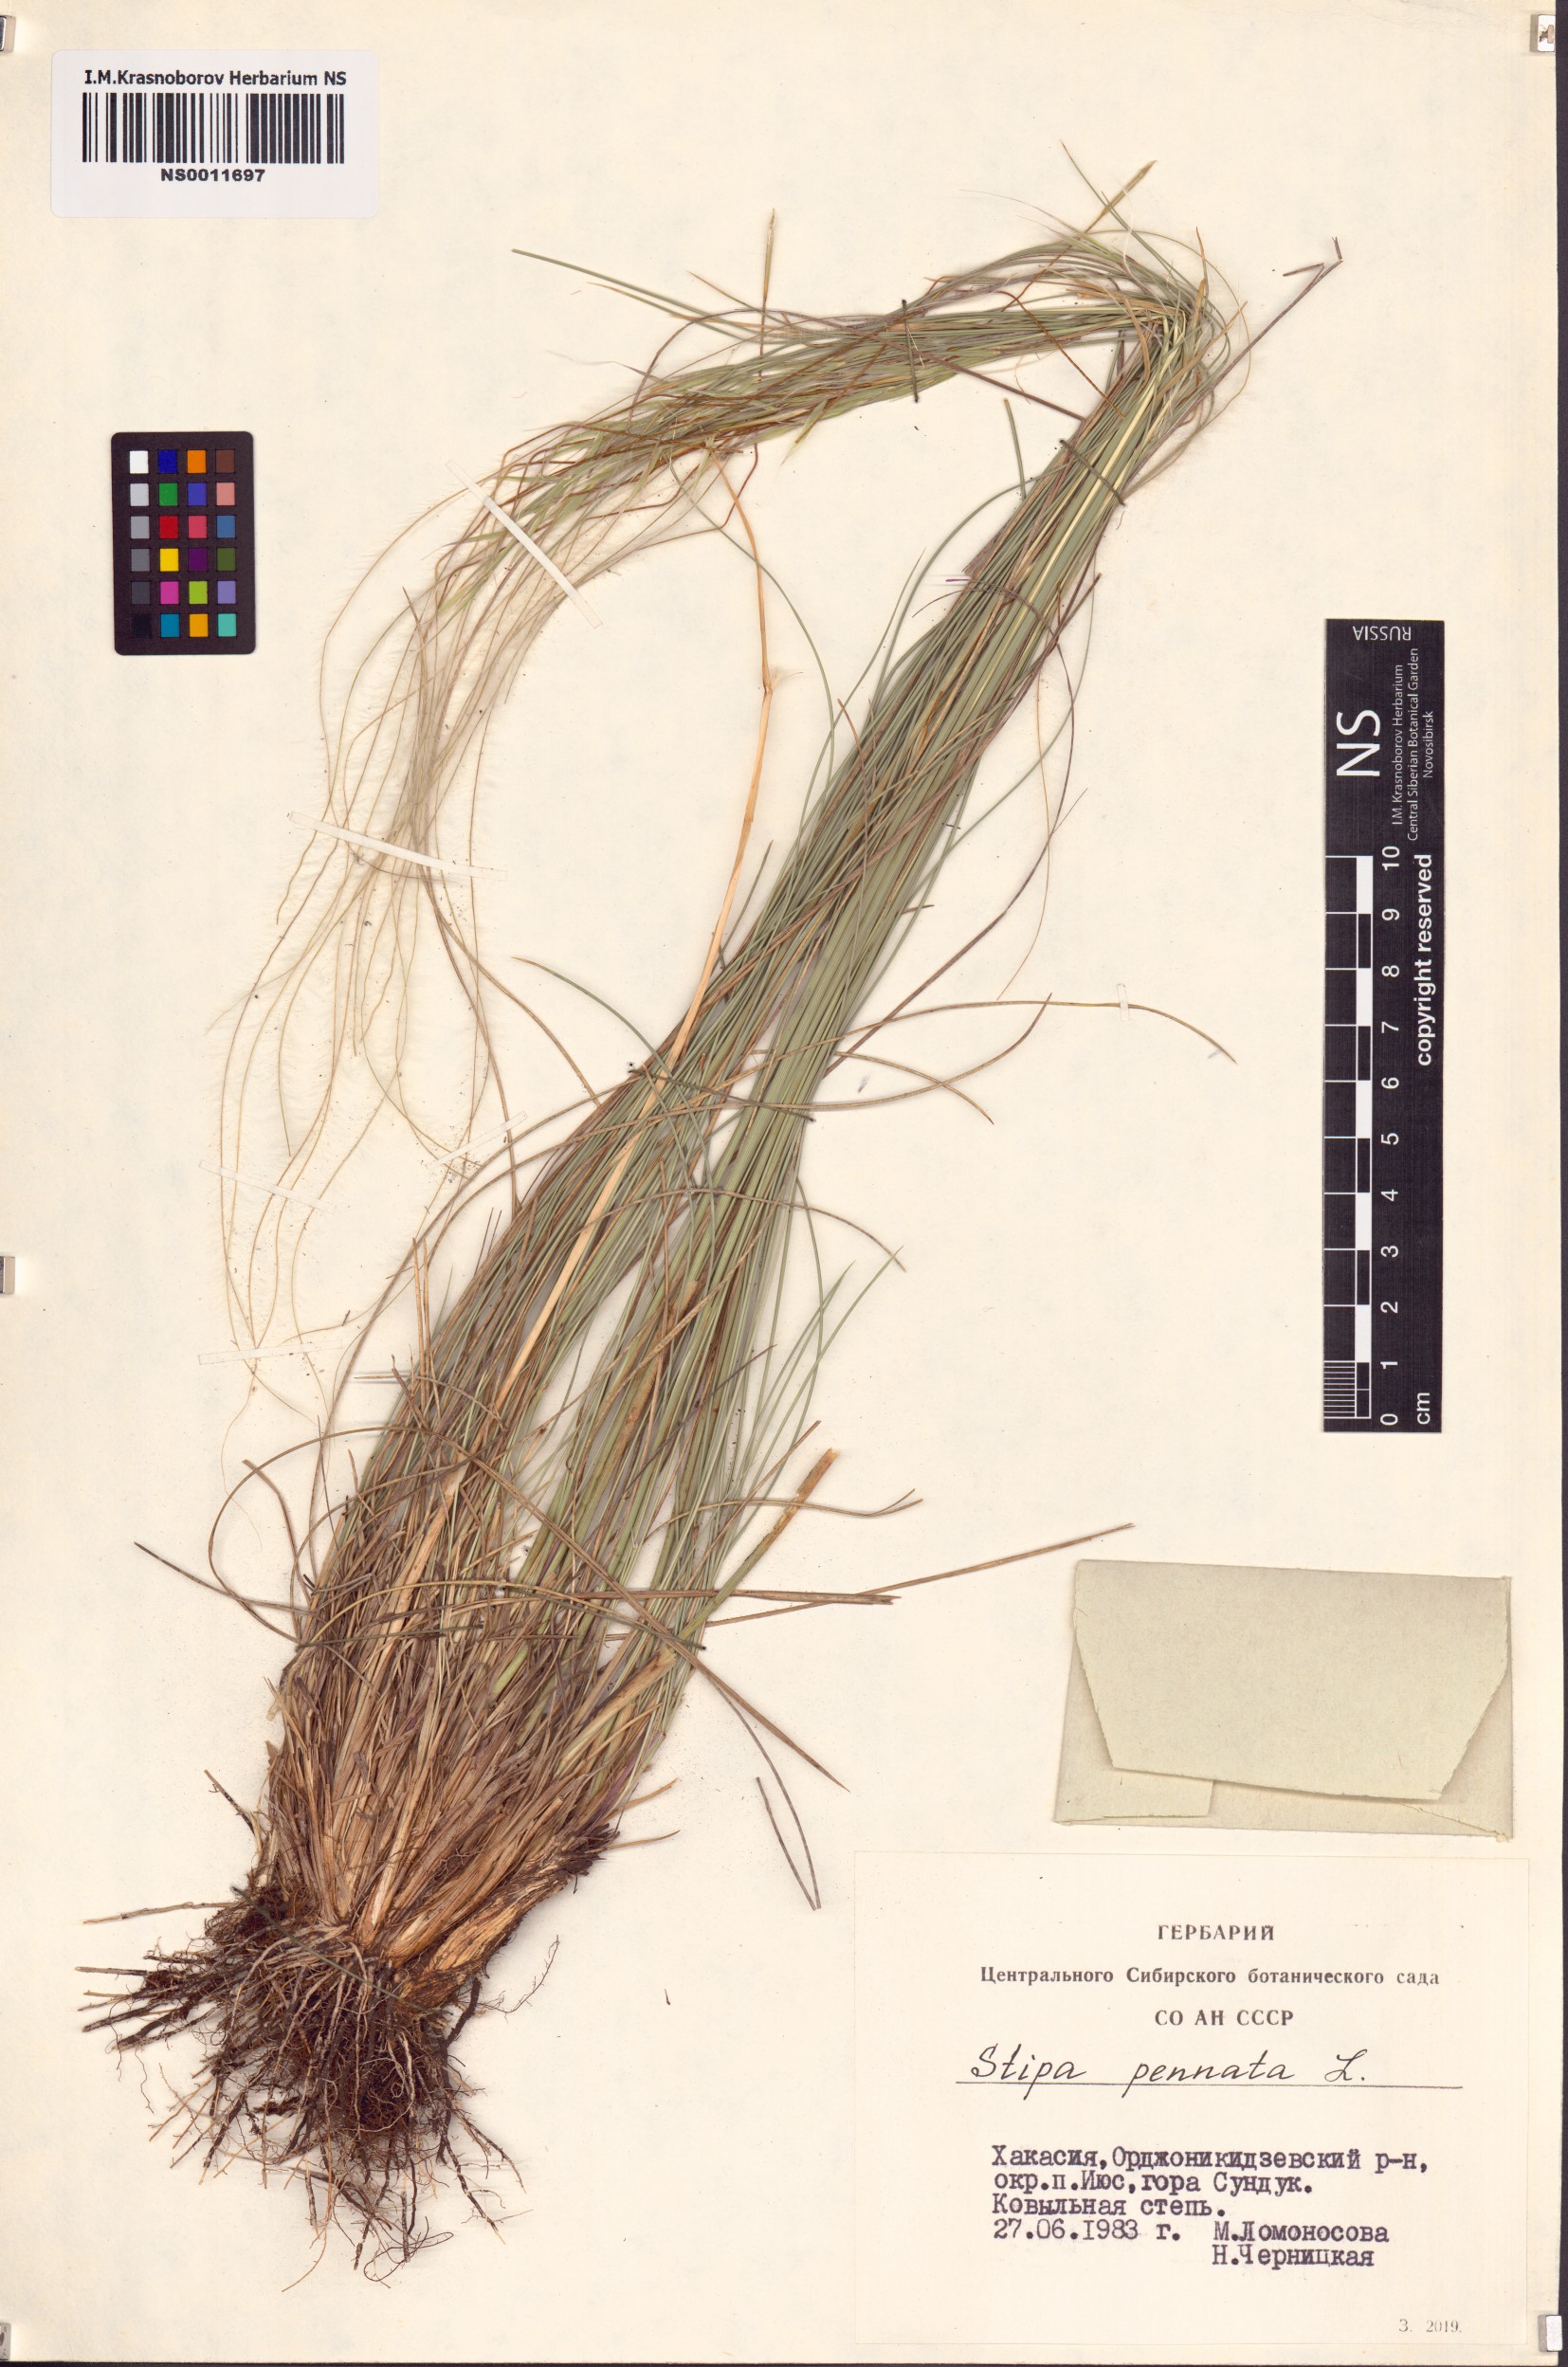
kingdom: Plantae
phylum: Tracheophyta
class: Liliopsida
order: Poales
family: Poaceae
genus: Stipa
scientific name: Stipa pennata
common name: European feather grass
